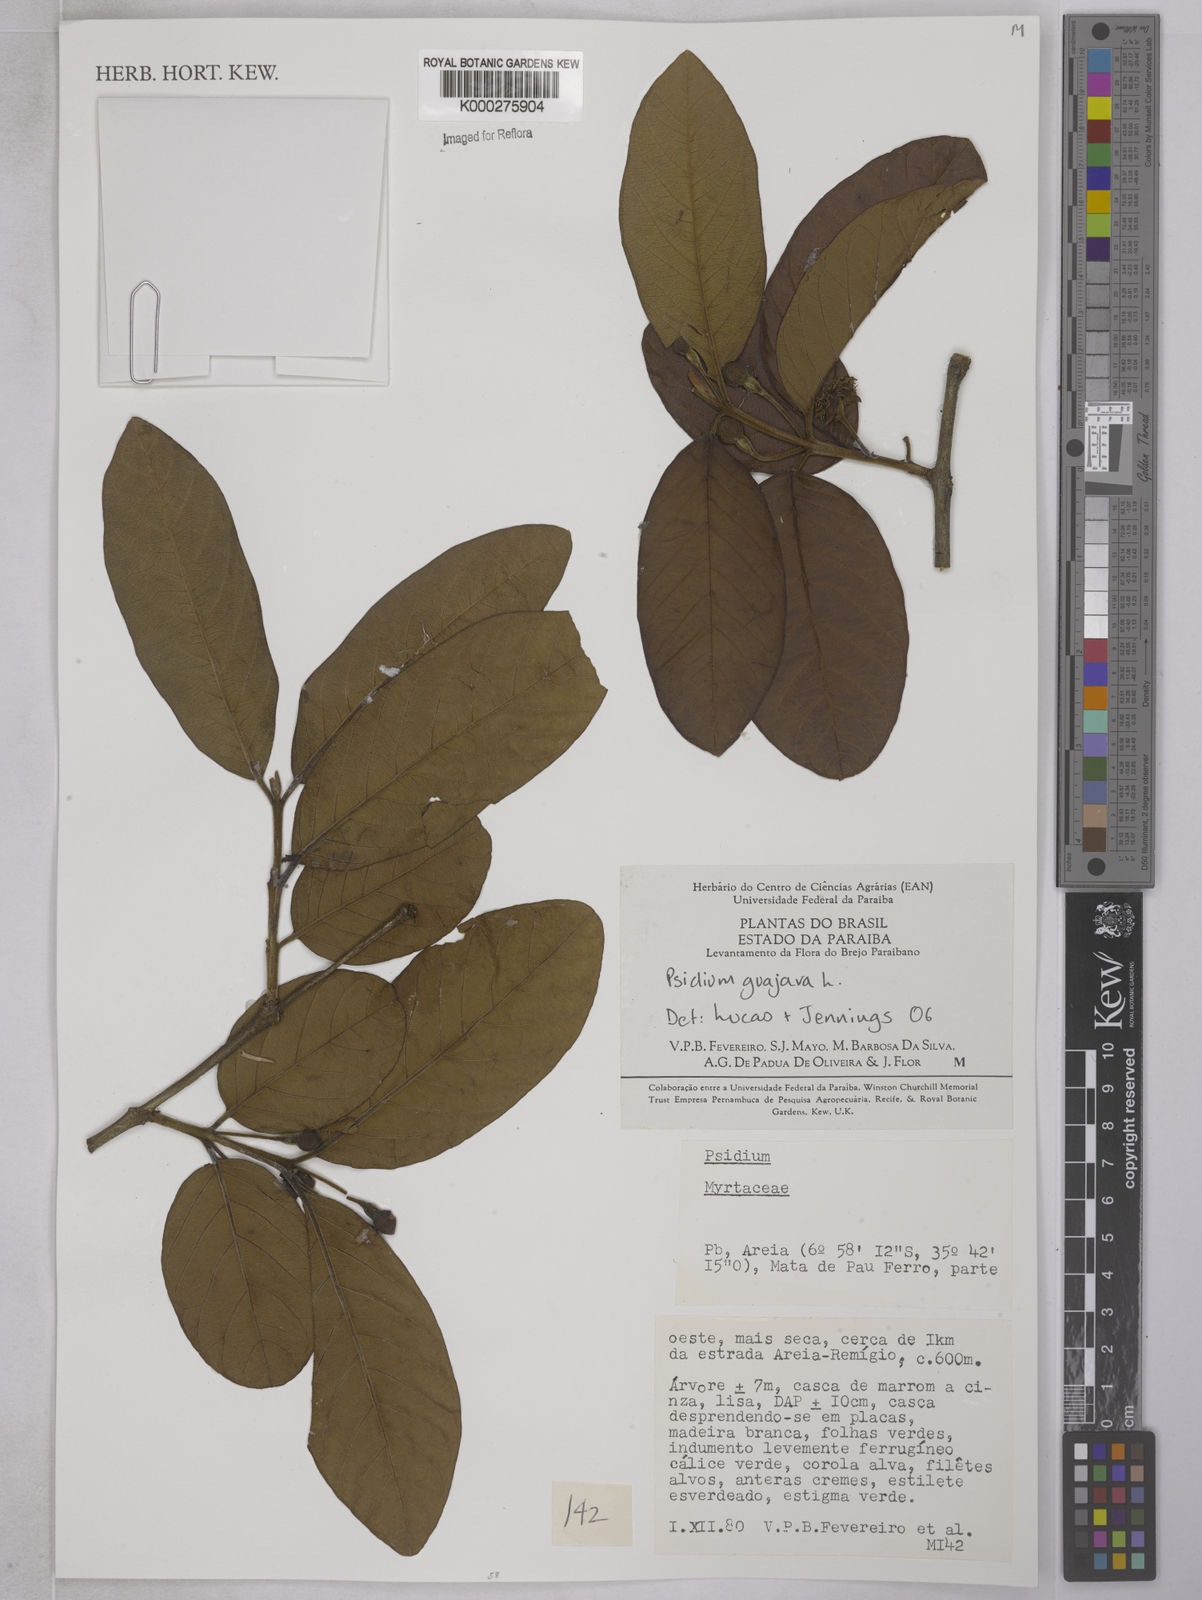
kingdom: Plantae
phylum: Tracheophyta
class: Magnoliopsida
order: Myrtales
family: Myrtaceae
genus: Psidium
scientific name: Psidium guajava
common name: Guava
